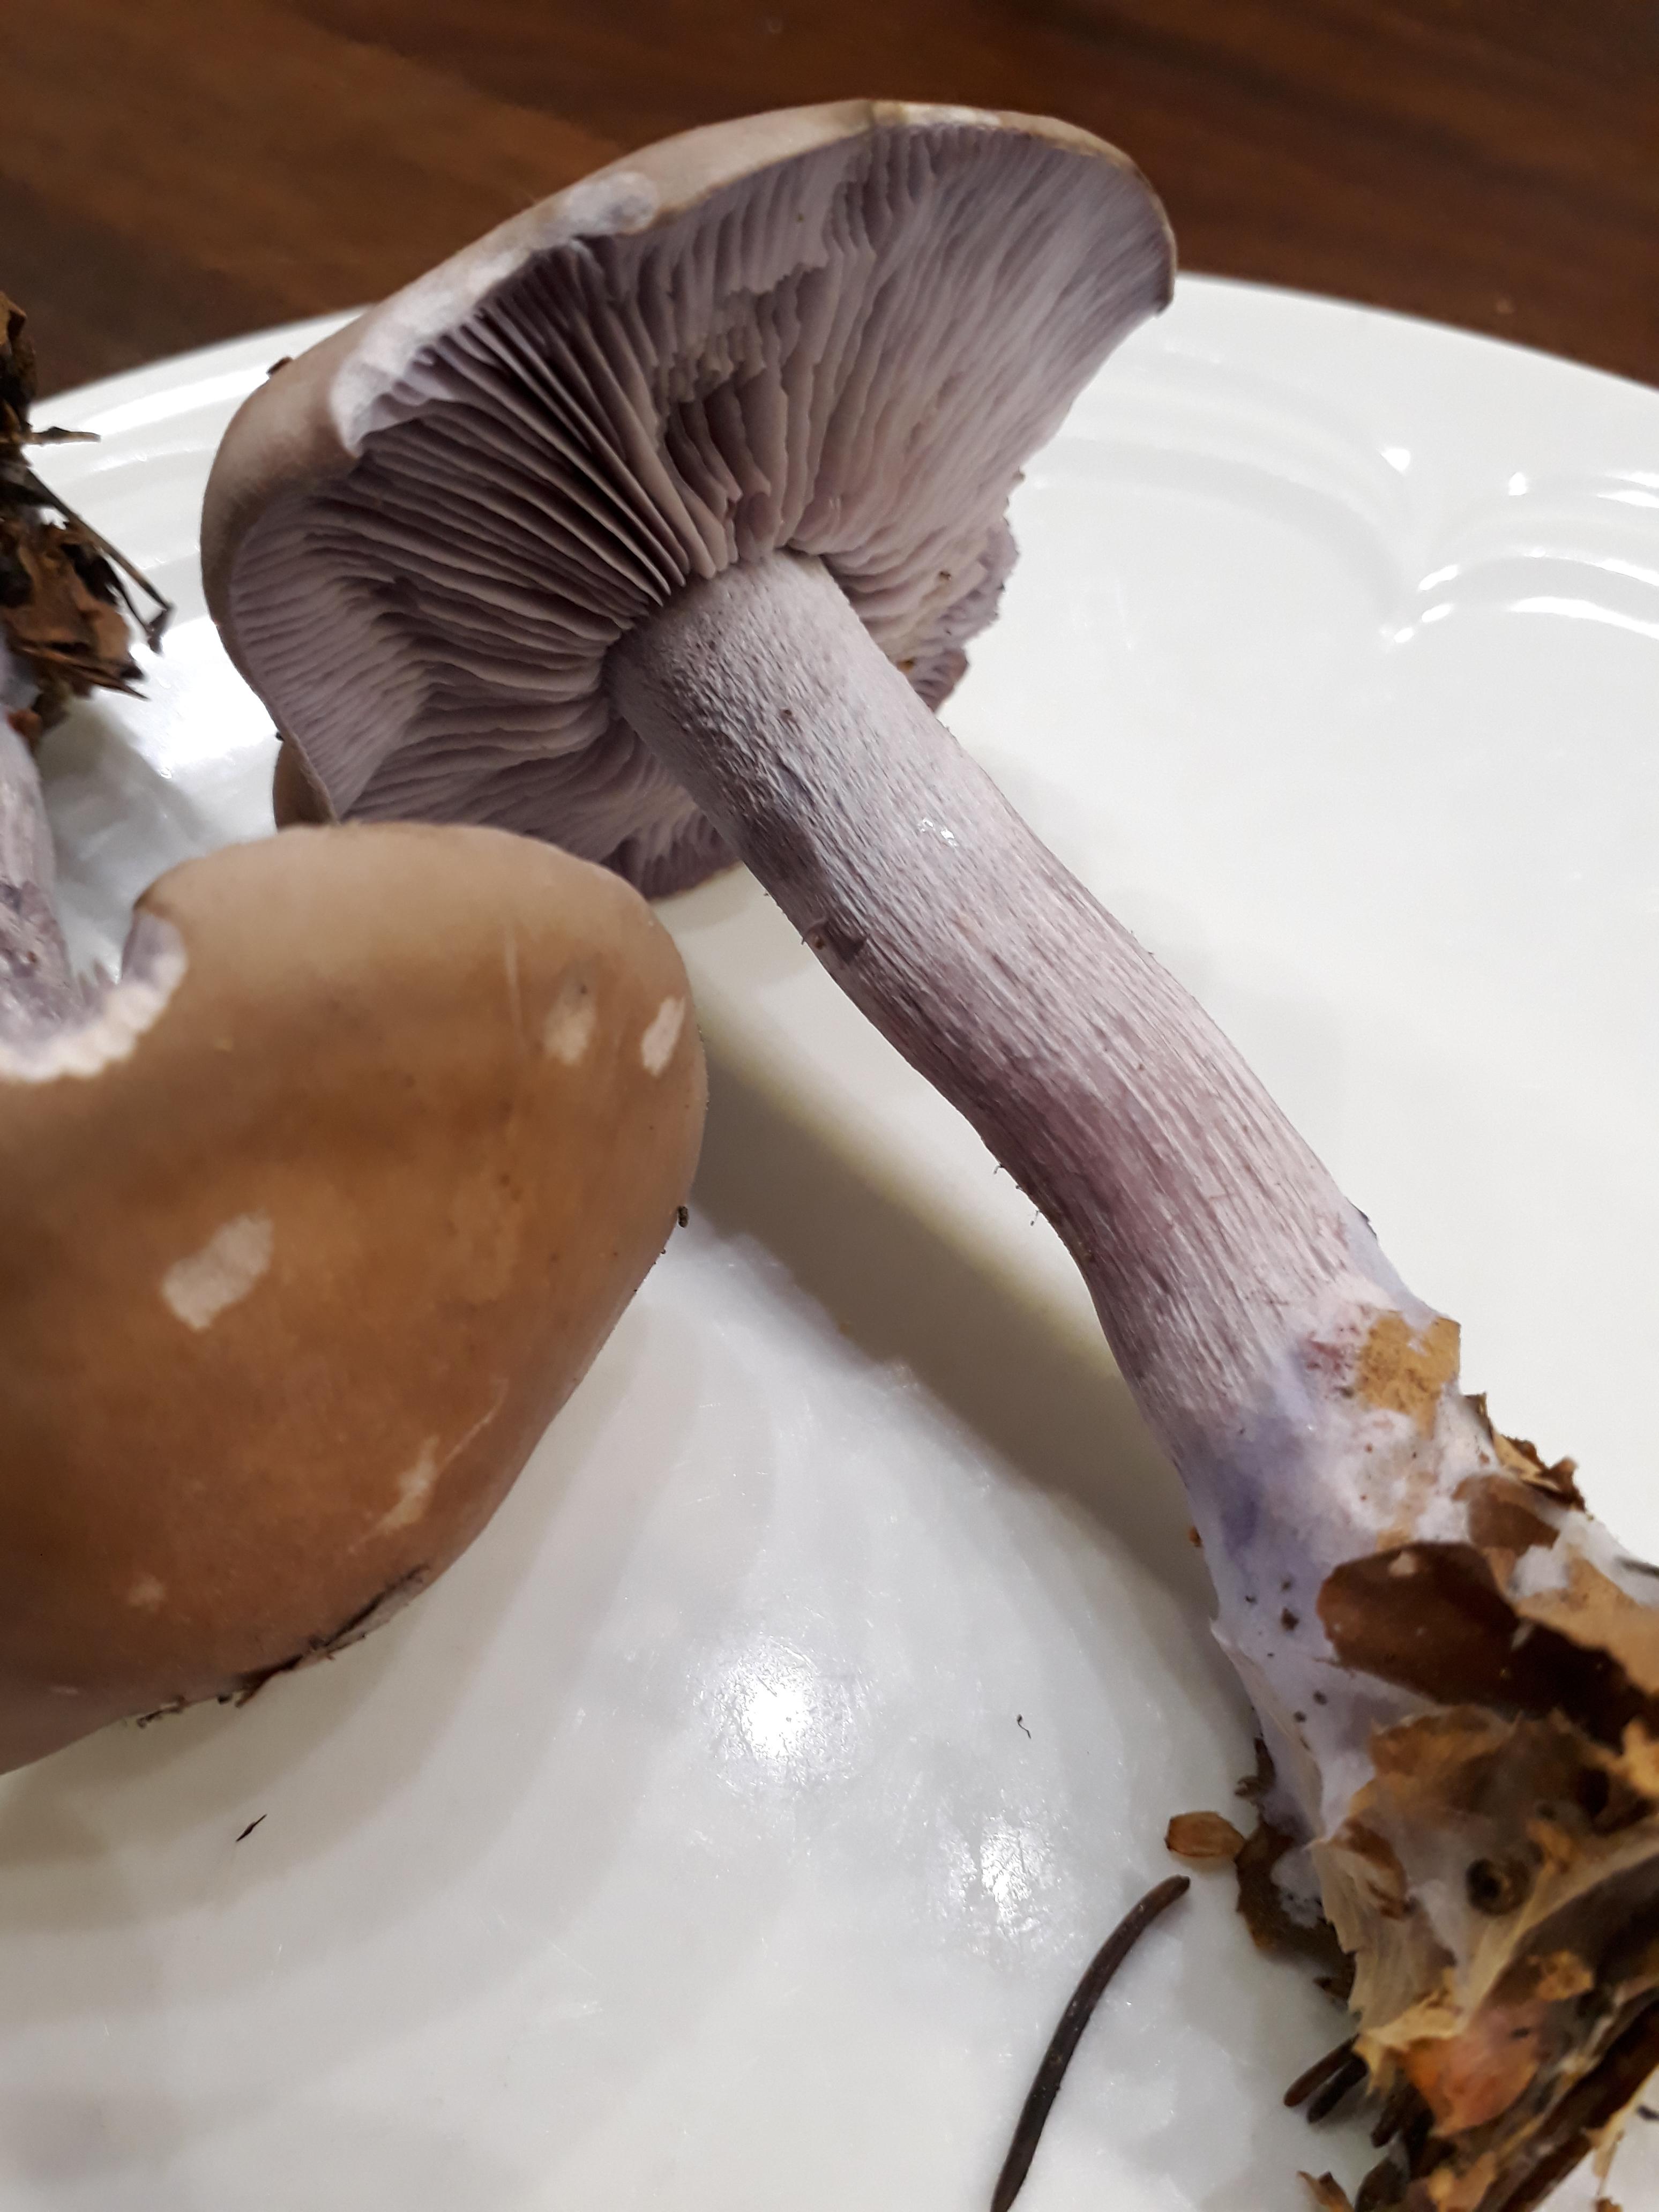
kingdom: Fungi
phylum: Basidiomycota
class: Agaricomycetes
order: Agaricales
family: Tricholomataceae
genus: Lepista
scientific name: Lepista nuda
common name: violet hekseringshat
